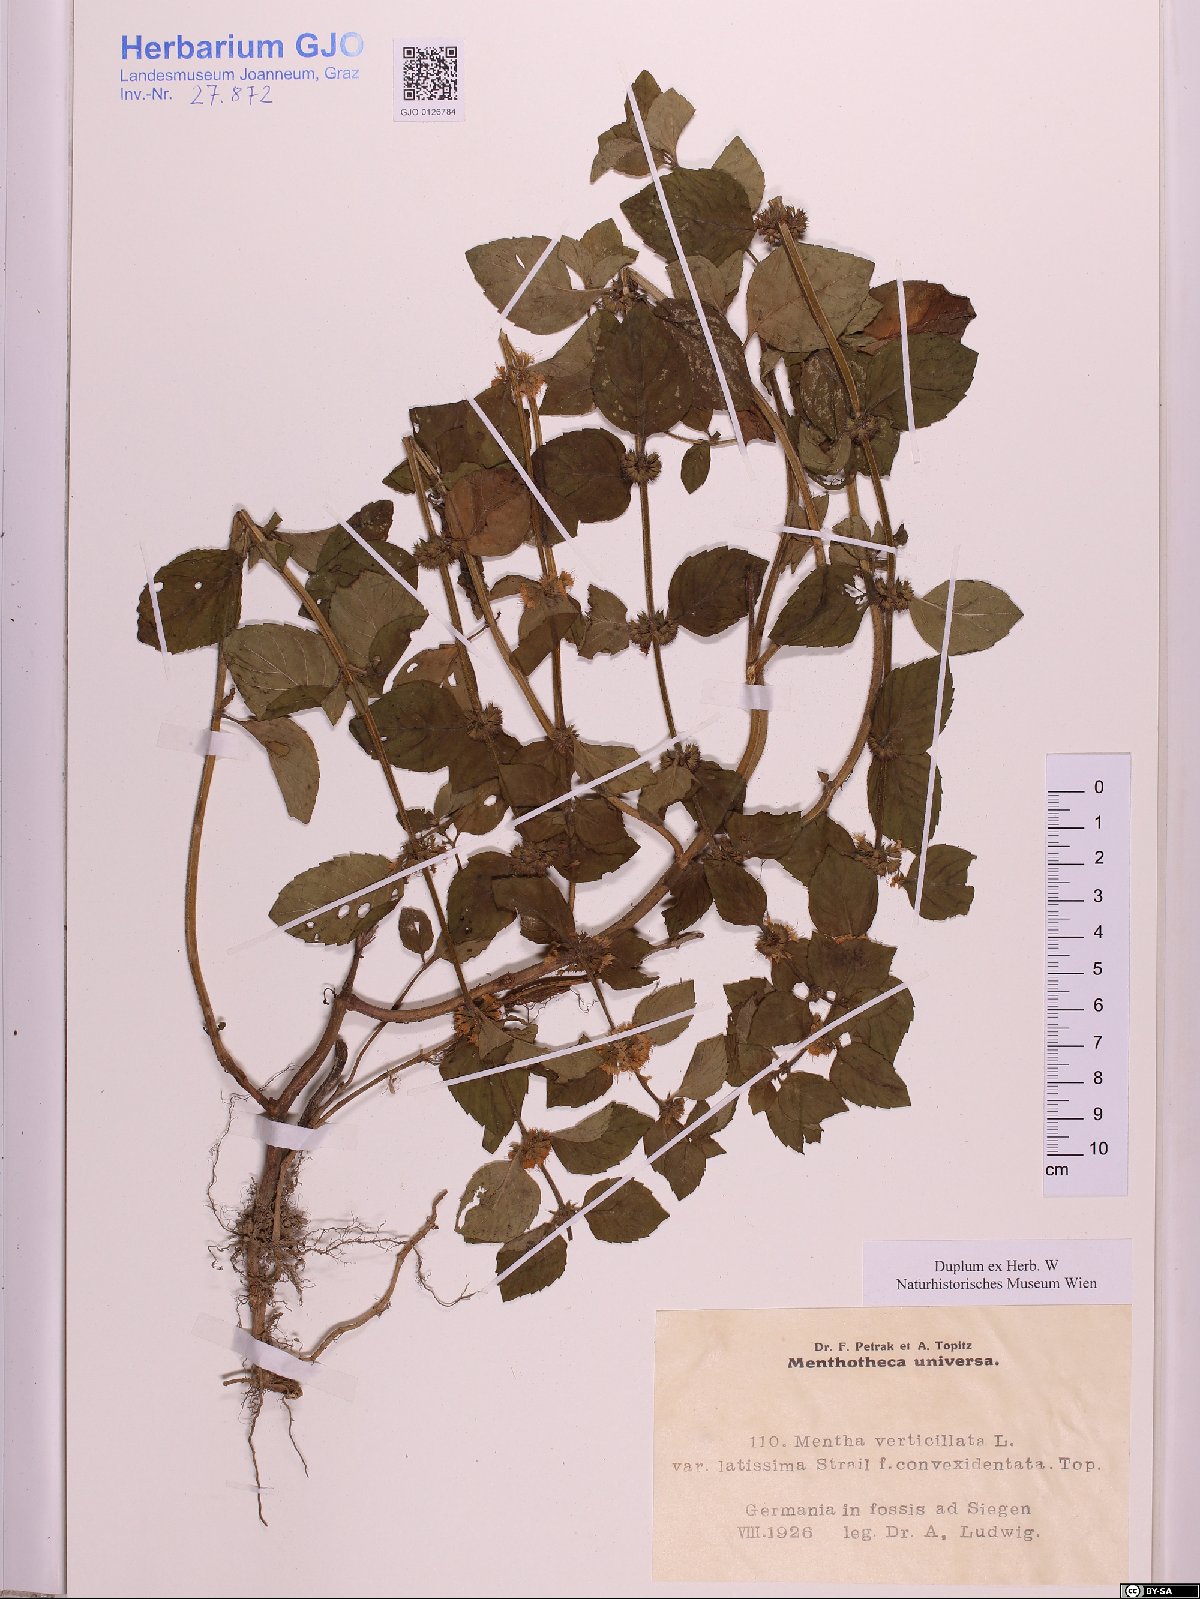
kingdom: Plantae
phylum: Tracheophyta
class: Magnoliopsida
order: Lamiales
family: Lamiaceae
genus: Mentha
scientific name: Mentha verticillata
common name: Mint
